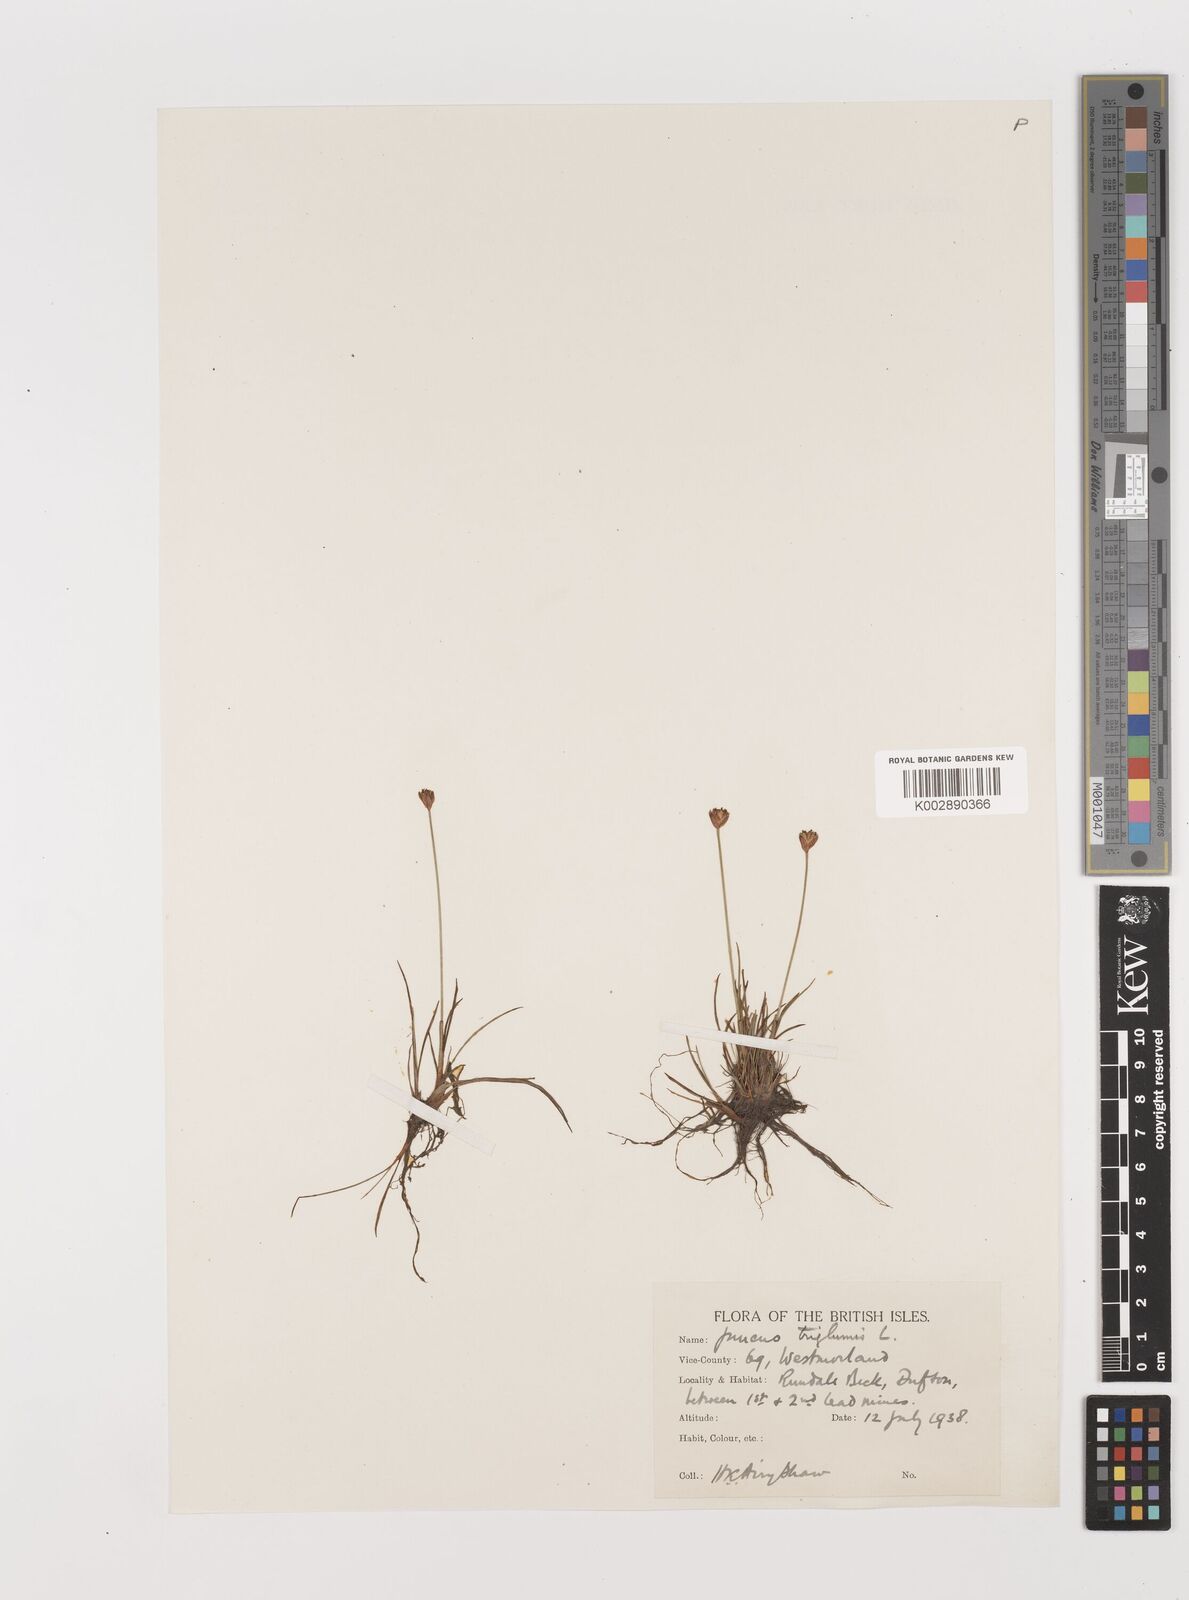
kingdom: Plantae
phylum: Tracheophyta
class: Liliopsida
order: Poales
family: Juncaceae
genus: Juncus
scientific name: Juncus triglumis
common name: Three-flowered rush
